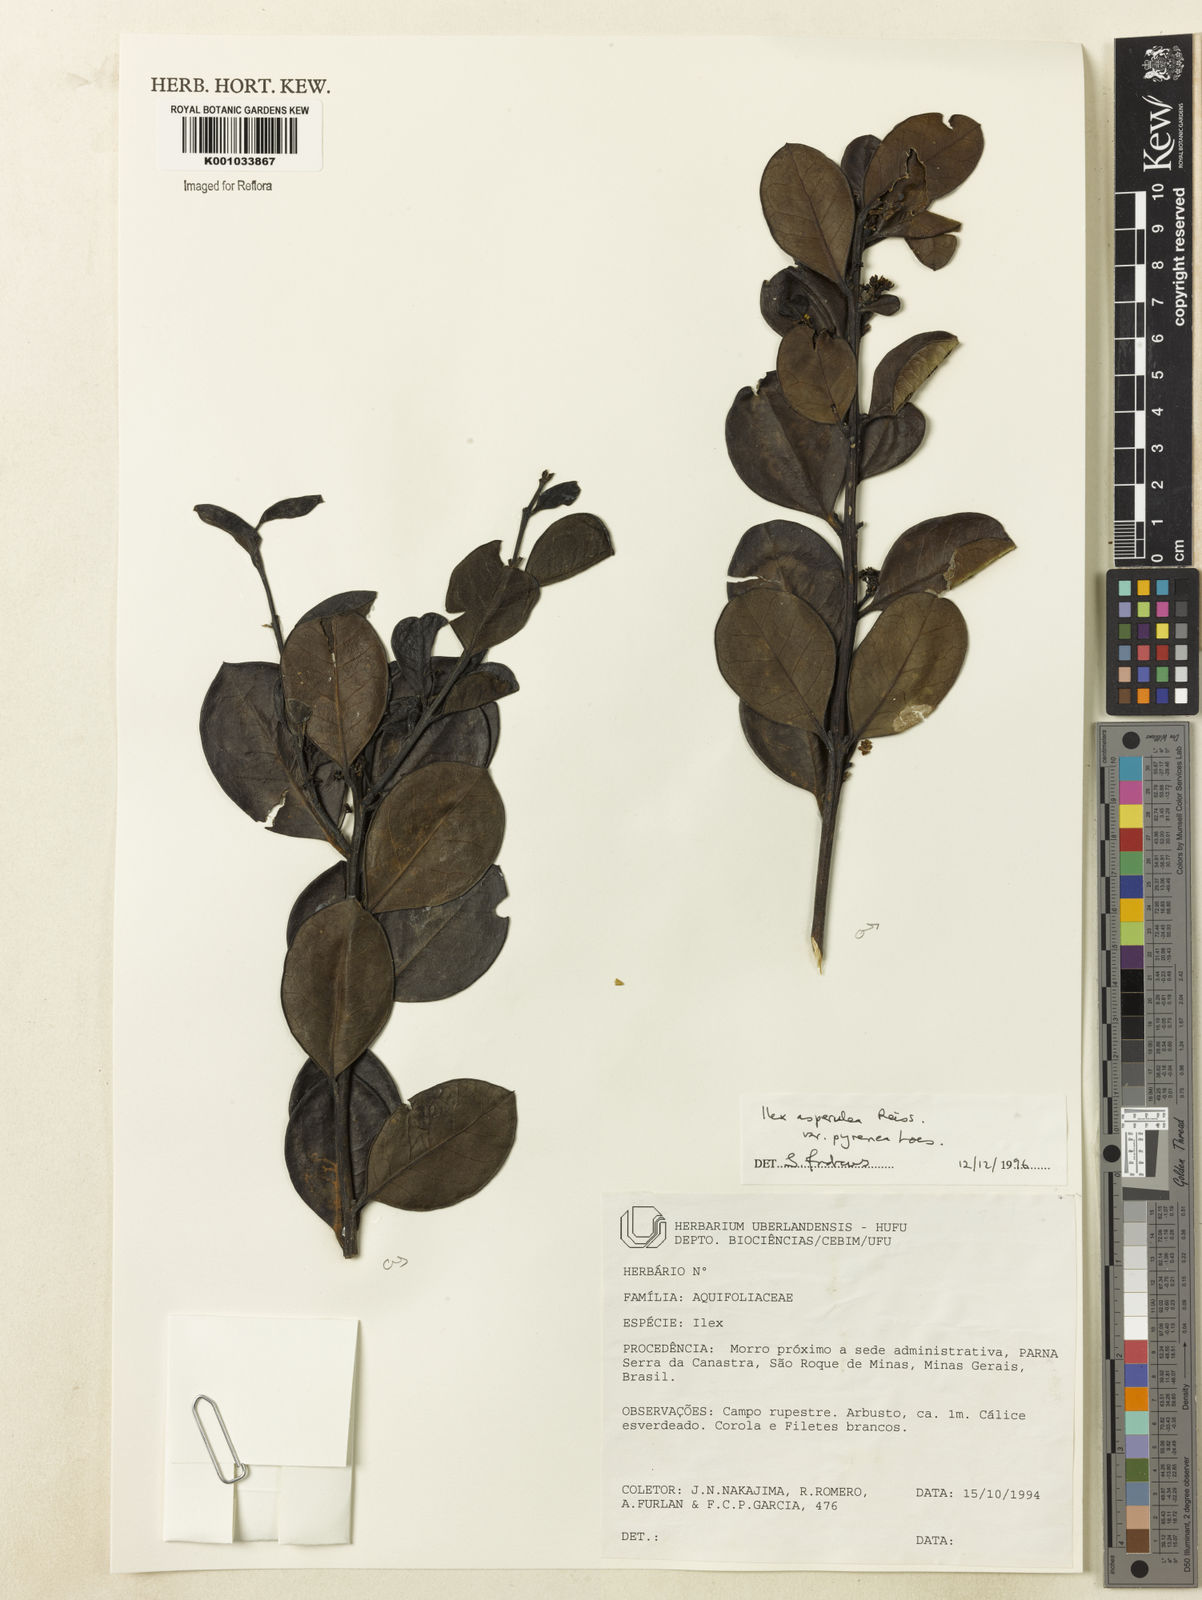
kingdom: Plantae
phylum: Tracheophyta
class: Magnoliopsida
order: Aquifoliales
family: Aquifoliaceae
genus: Ilex
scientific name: Ilex asperula
